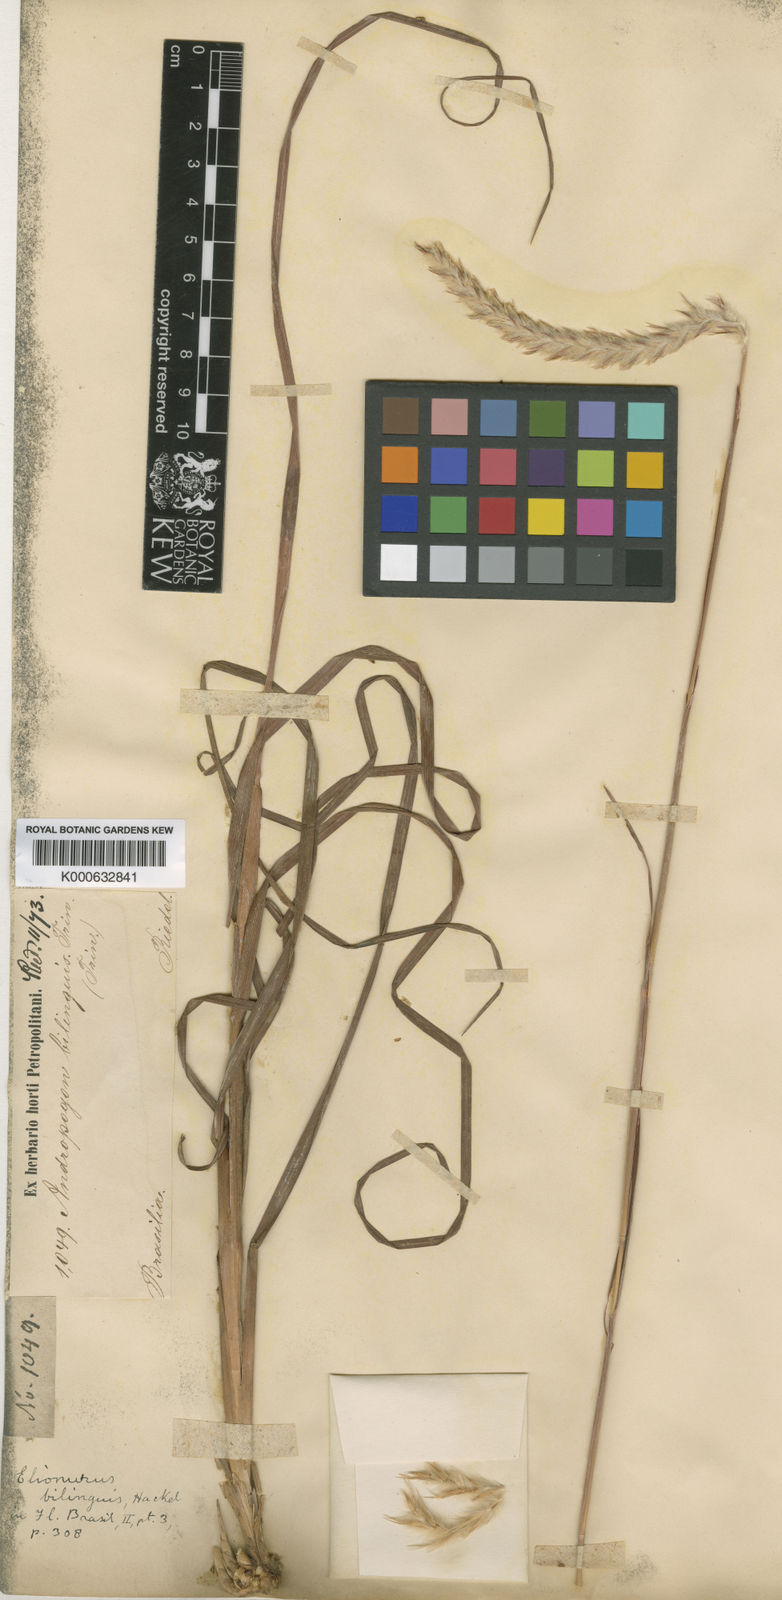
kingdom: Plantae
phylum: Tracheophyta
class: Liliopsida
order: Poales
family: Poaceae
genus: Elionurus
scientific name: Elionurus bilinguis
